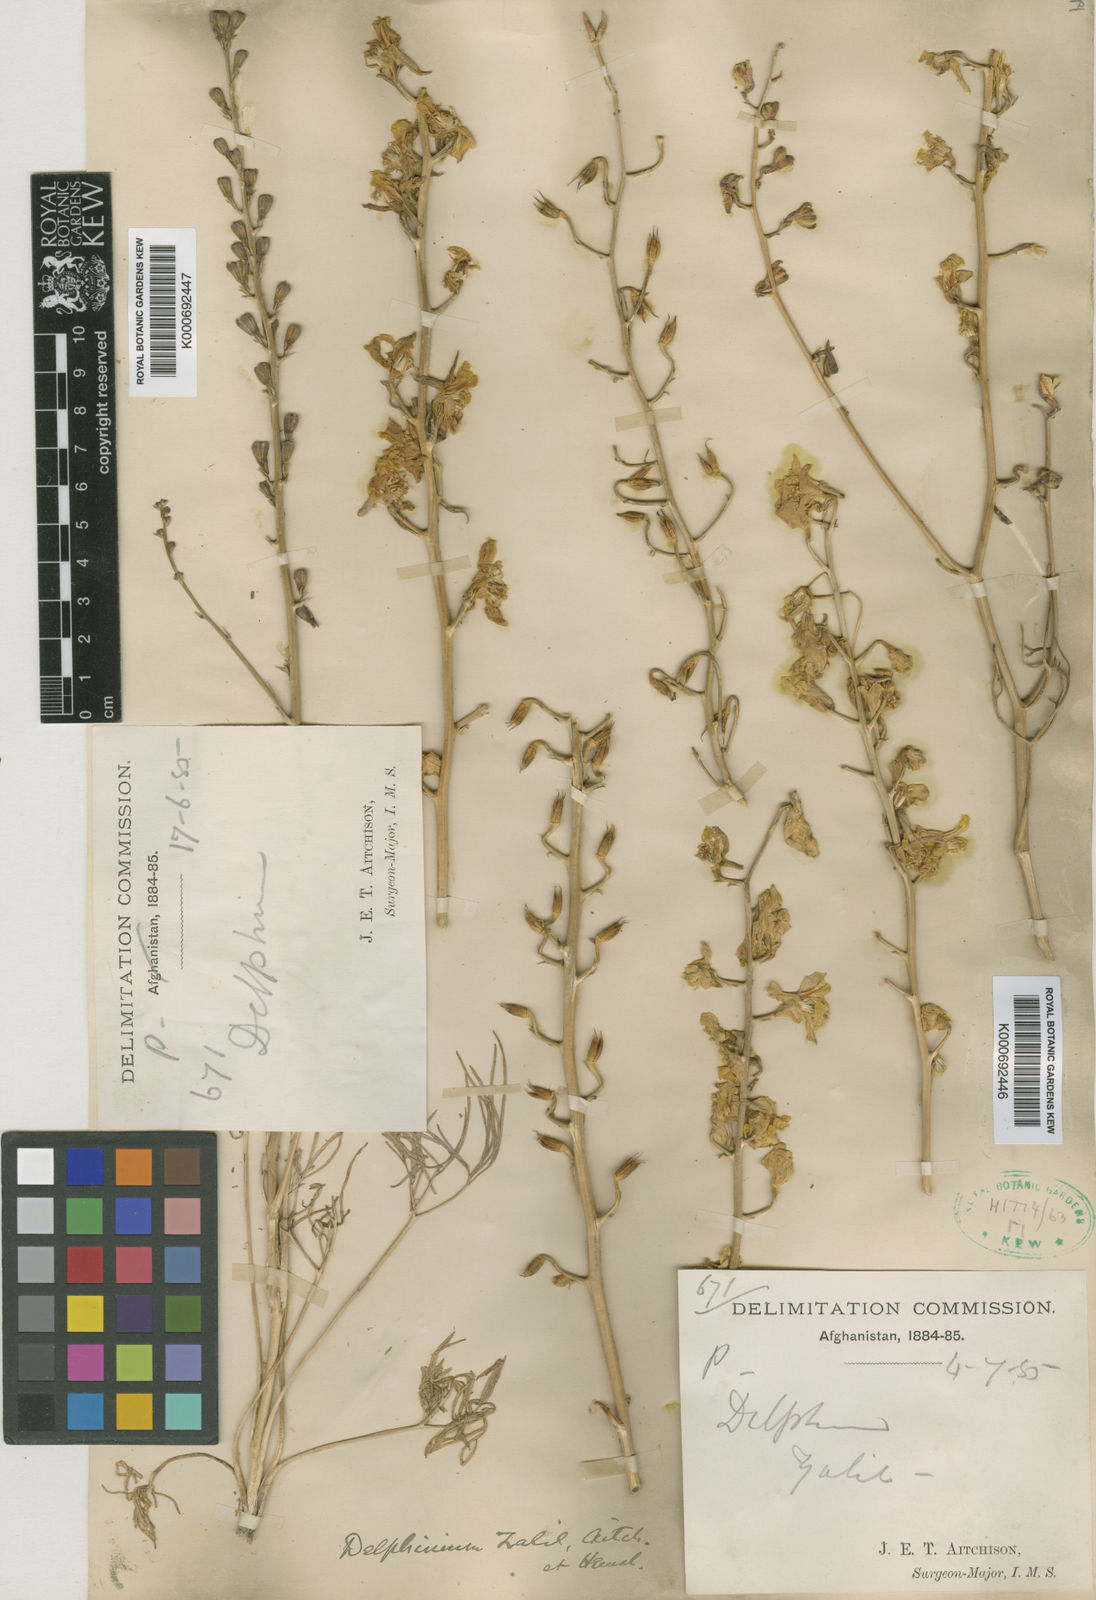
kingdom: Plantae
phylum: Tracheophyta
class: Magnoliopsida
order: Ranunculales
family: Ranunculaceae
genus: Delphinium
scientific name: Delphinium semibarbatum
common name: Zalil
